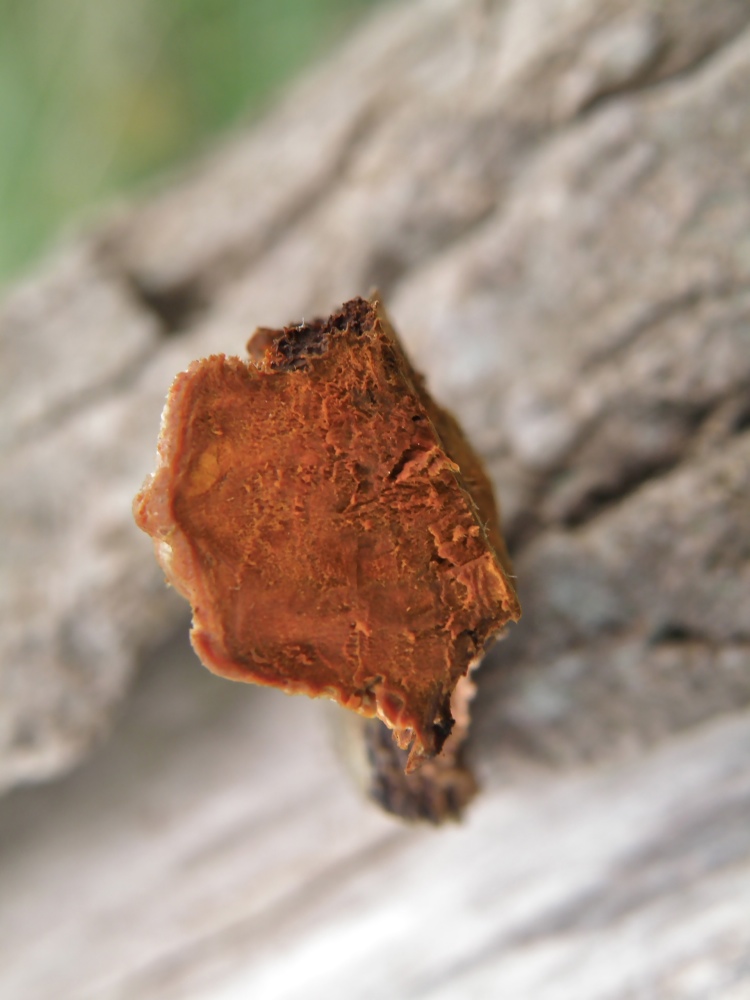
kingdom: Fungi
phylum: Basidiomycota
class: Agaricomycetes
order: Gloeophyllales
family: Gloeophyllaceae
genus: Gloeophyllum
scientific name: Gloeophyllum sepiarium
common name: fyrre-korkhat
